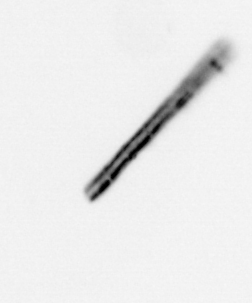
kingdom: Chromista
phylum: Ochrophyta
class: Bacillariophyceae
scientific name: Bacillariophyceae
